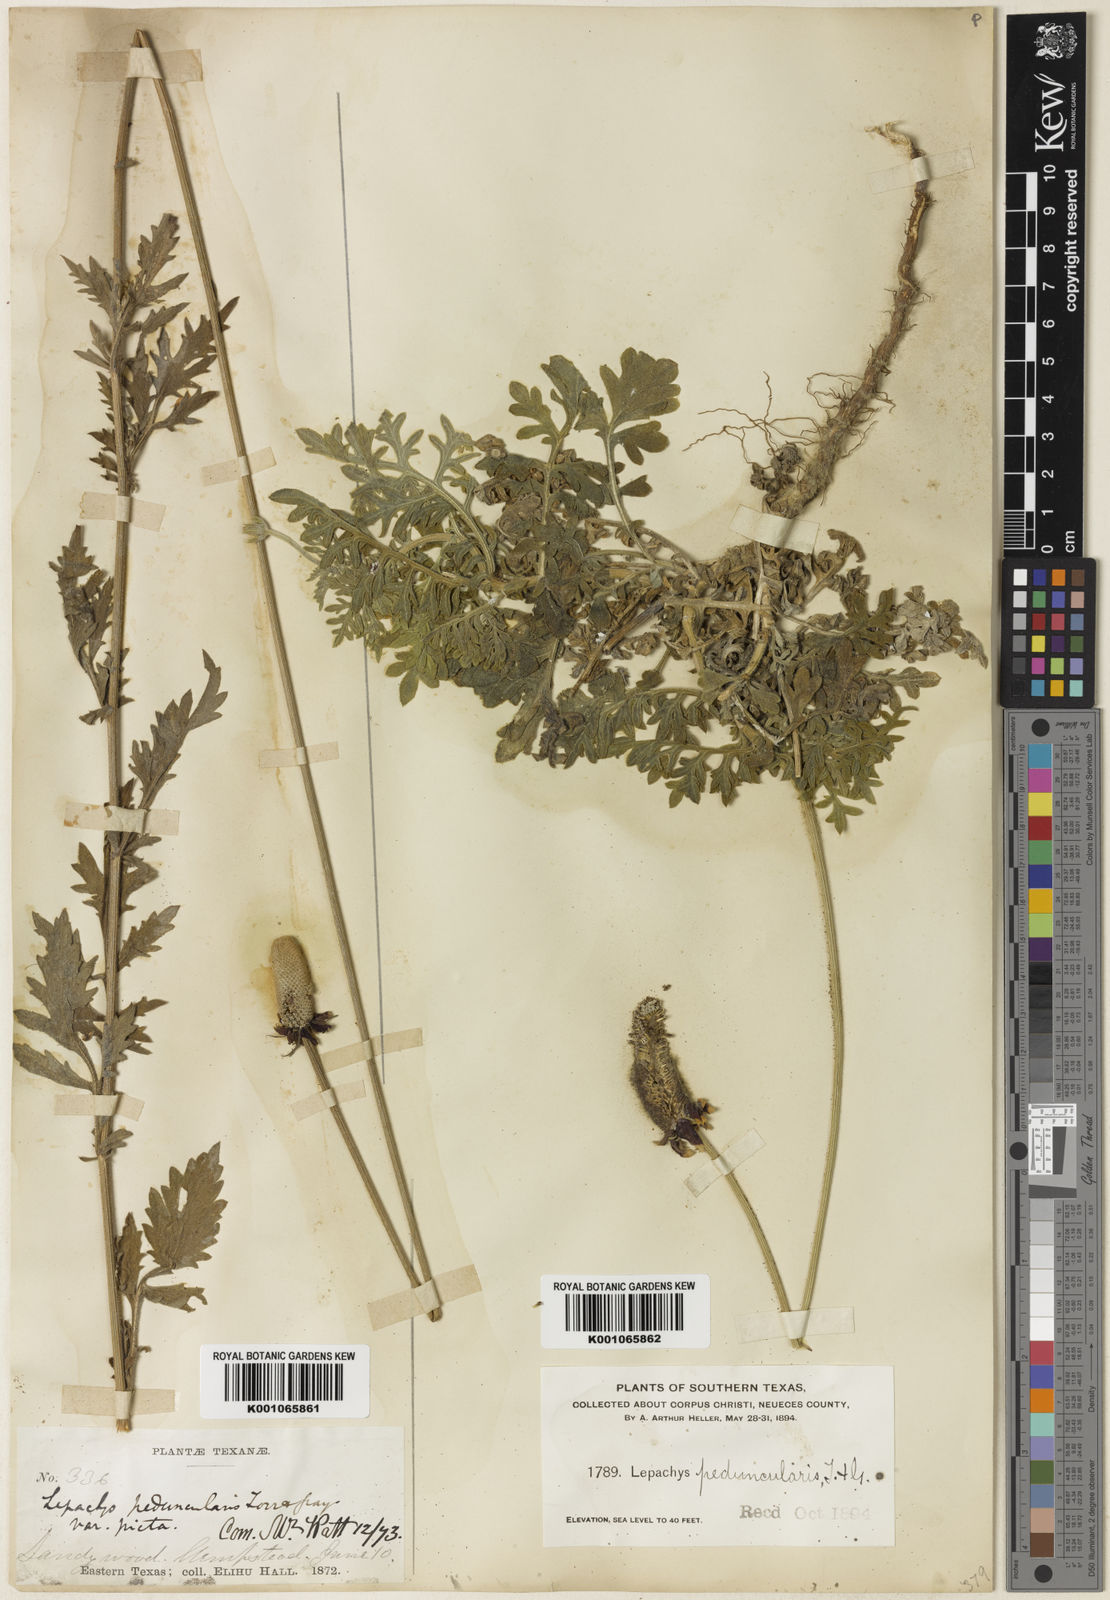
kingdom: Plantae
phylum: Tracheophyta
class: Magnoliopsida
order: Asterales
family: Asteraceae
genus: Ratibida
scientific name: Ratibida peduncularis
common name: Naked prairie-coneflower
